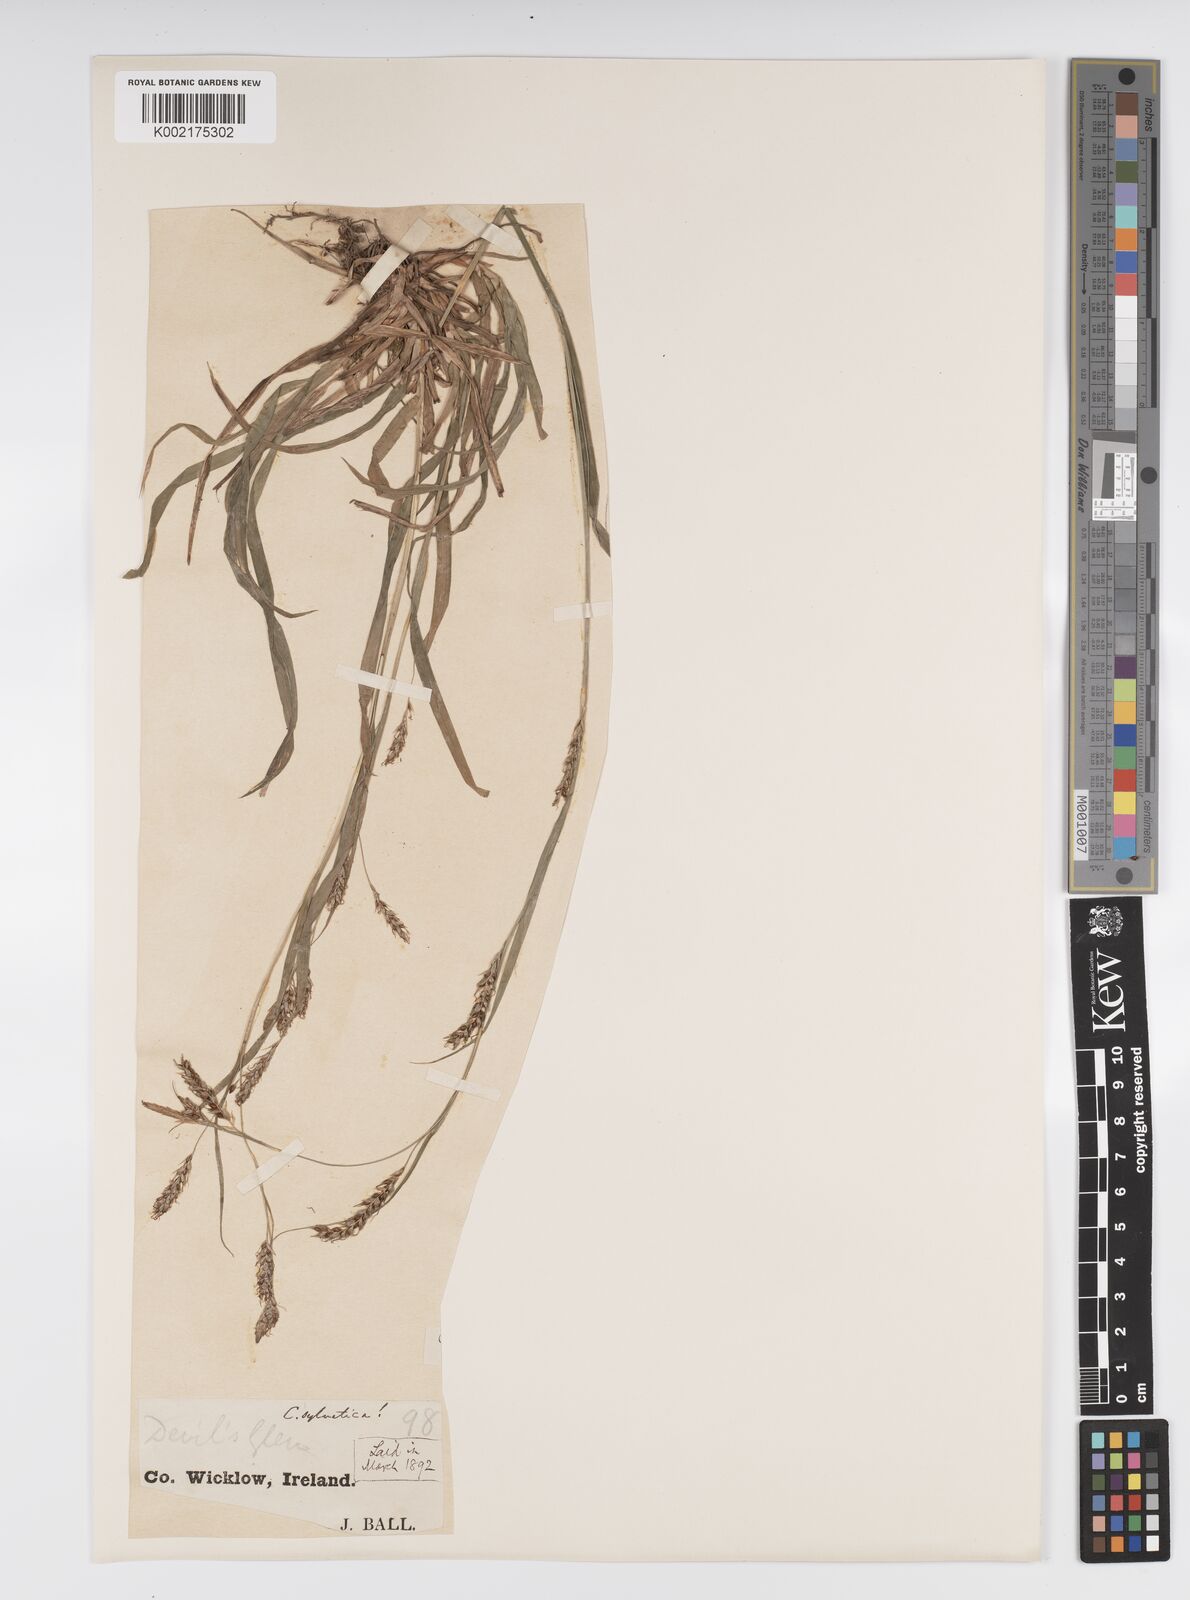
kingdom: Plantae
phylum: Tracheophyta
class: Liliopsida
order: Poales
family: Cyperaceae
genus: Carex
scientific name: Carex sylvatica
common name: Wood-sedge
